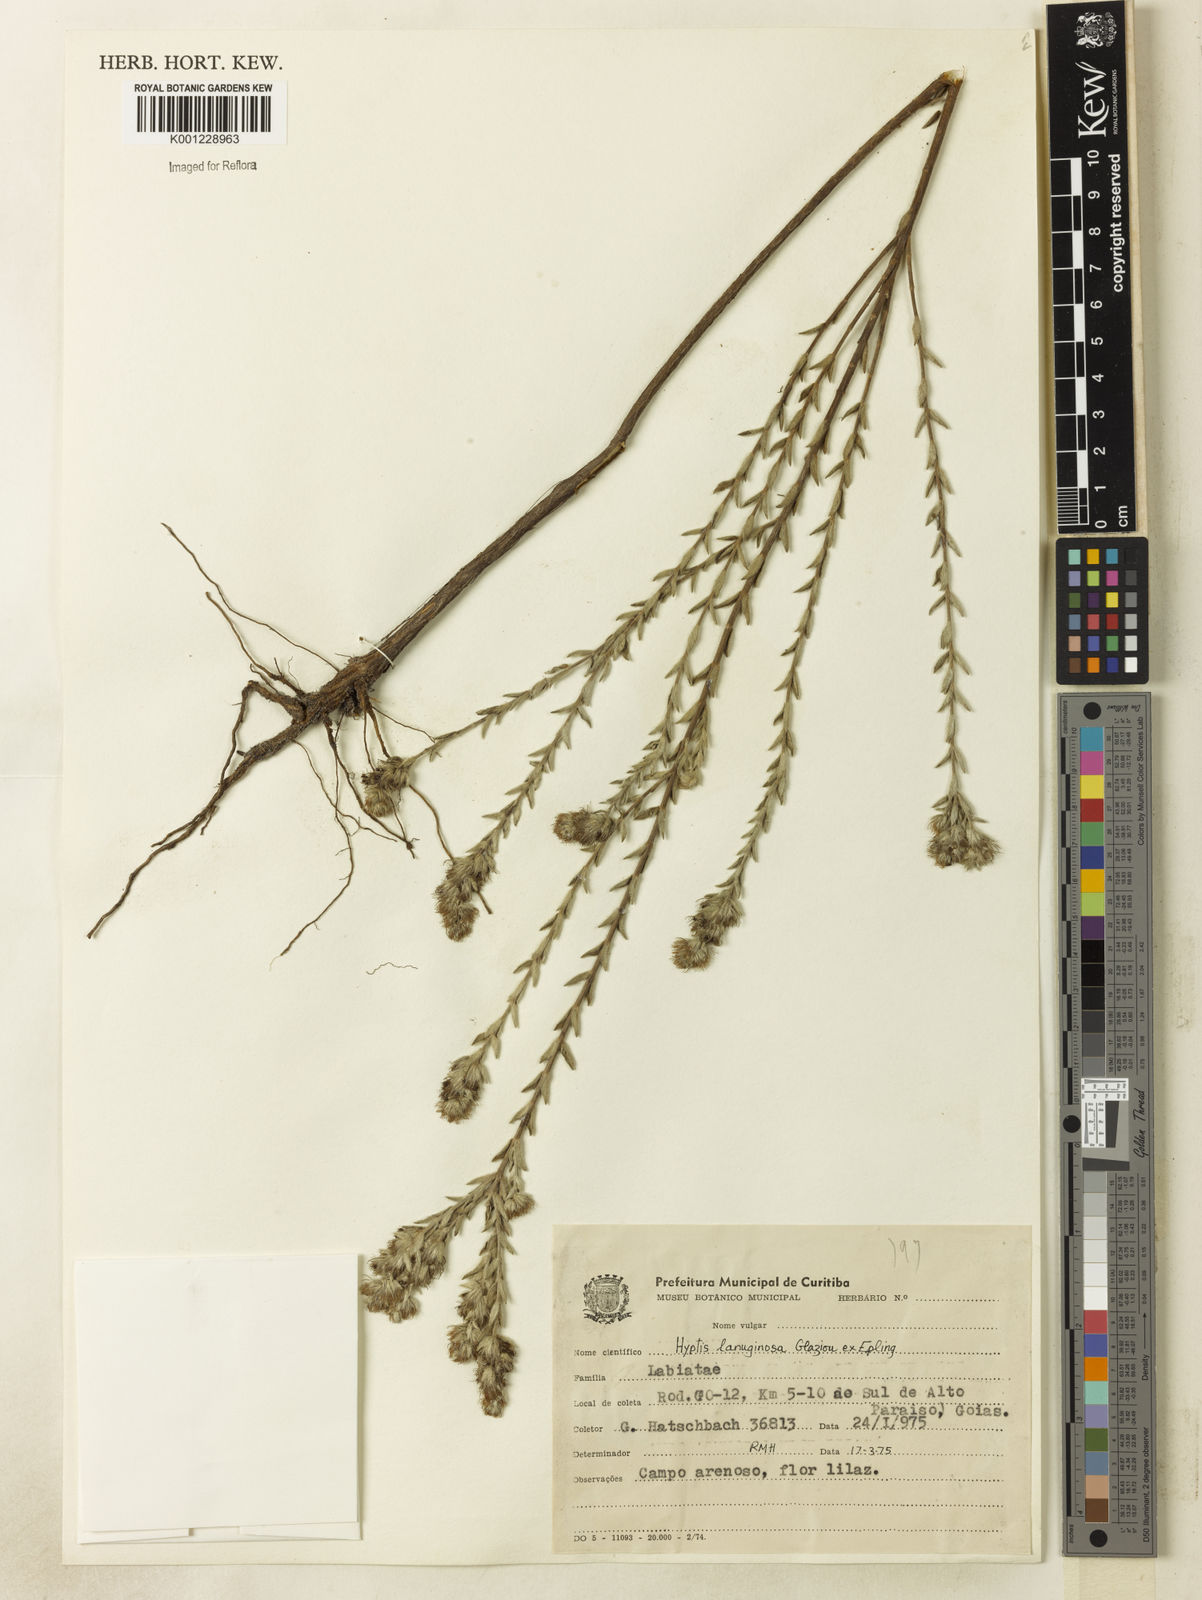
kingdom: Plantae
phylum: Tracheophyta
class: Magnoliopsida
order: Lamiales
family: Lamiaceae
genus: Hyptis
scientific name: Hyptis lanuginosa
